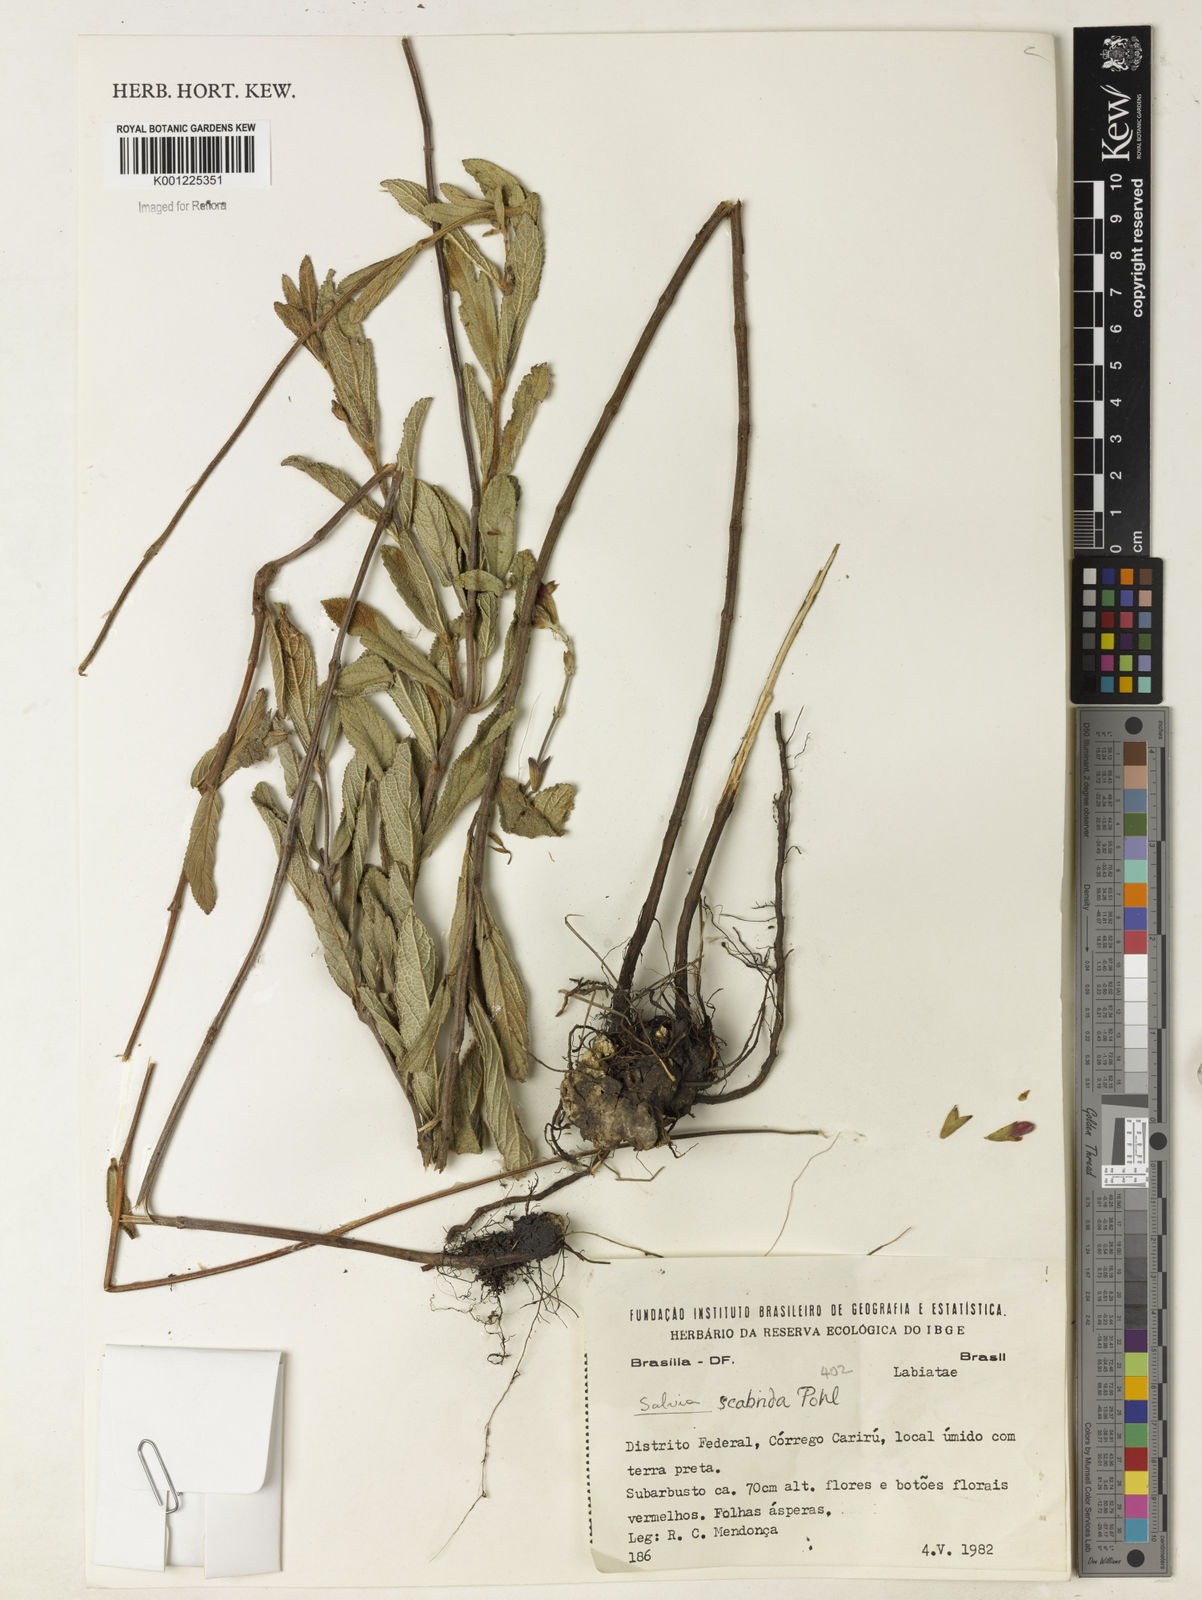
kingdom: Plantae
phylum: Tracheophyta
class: Magnoliopsida
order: Lamiales
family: Lamiaceae
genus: Salvia
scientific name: Salvia scabrida
